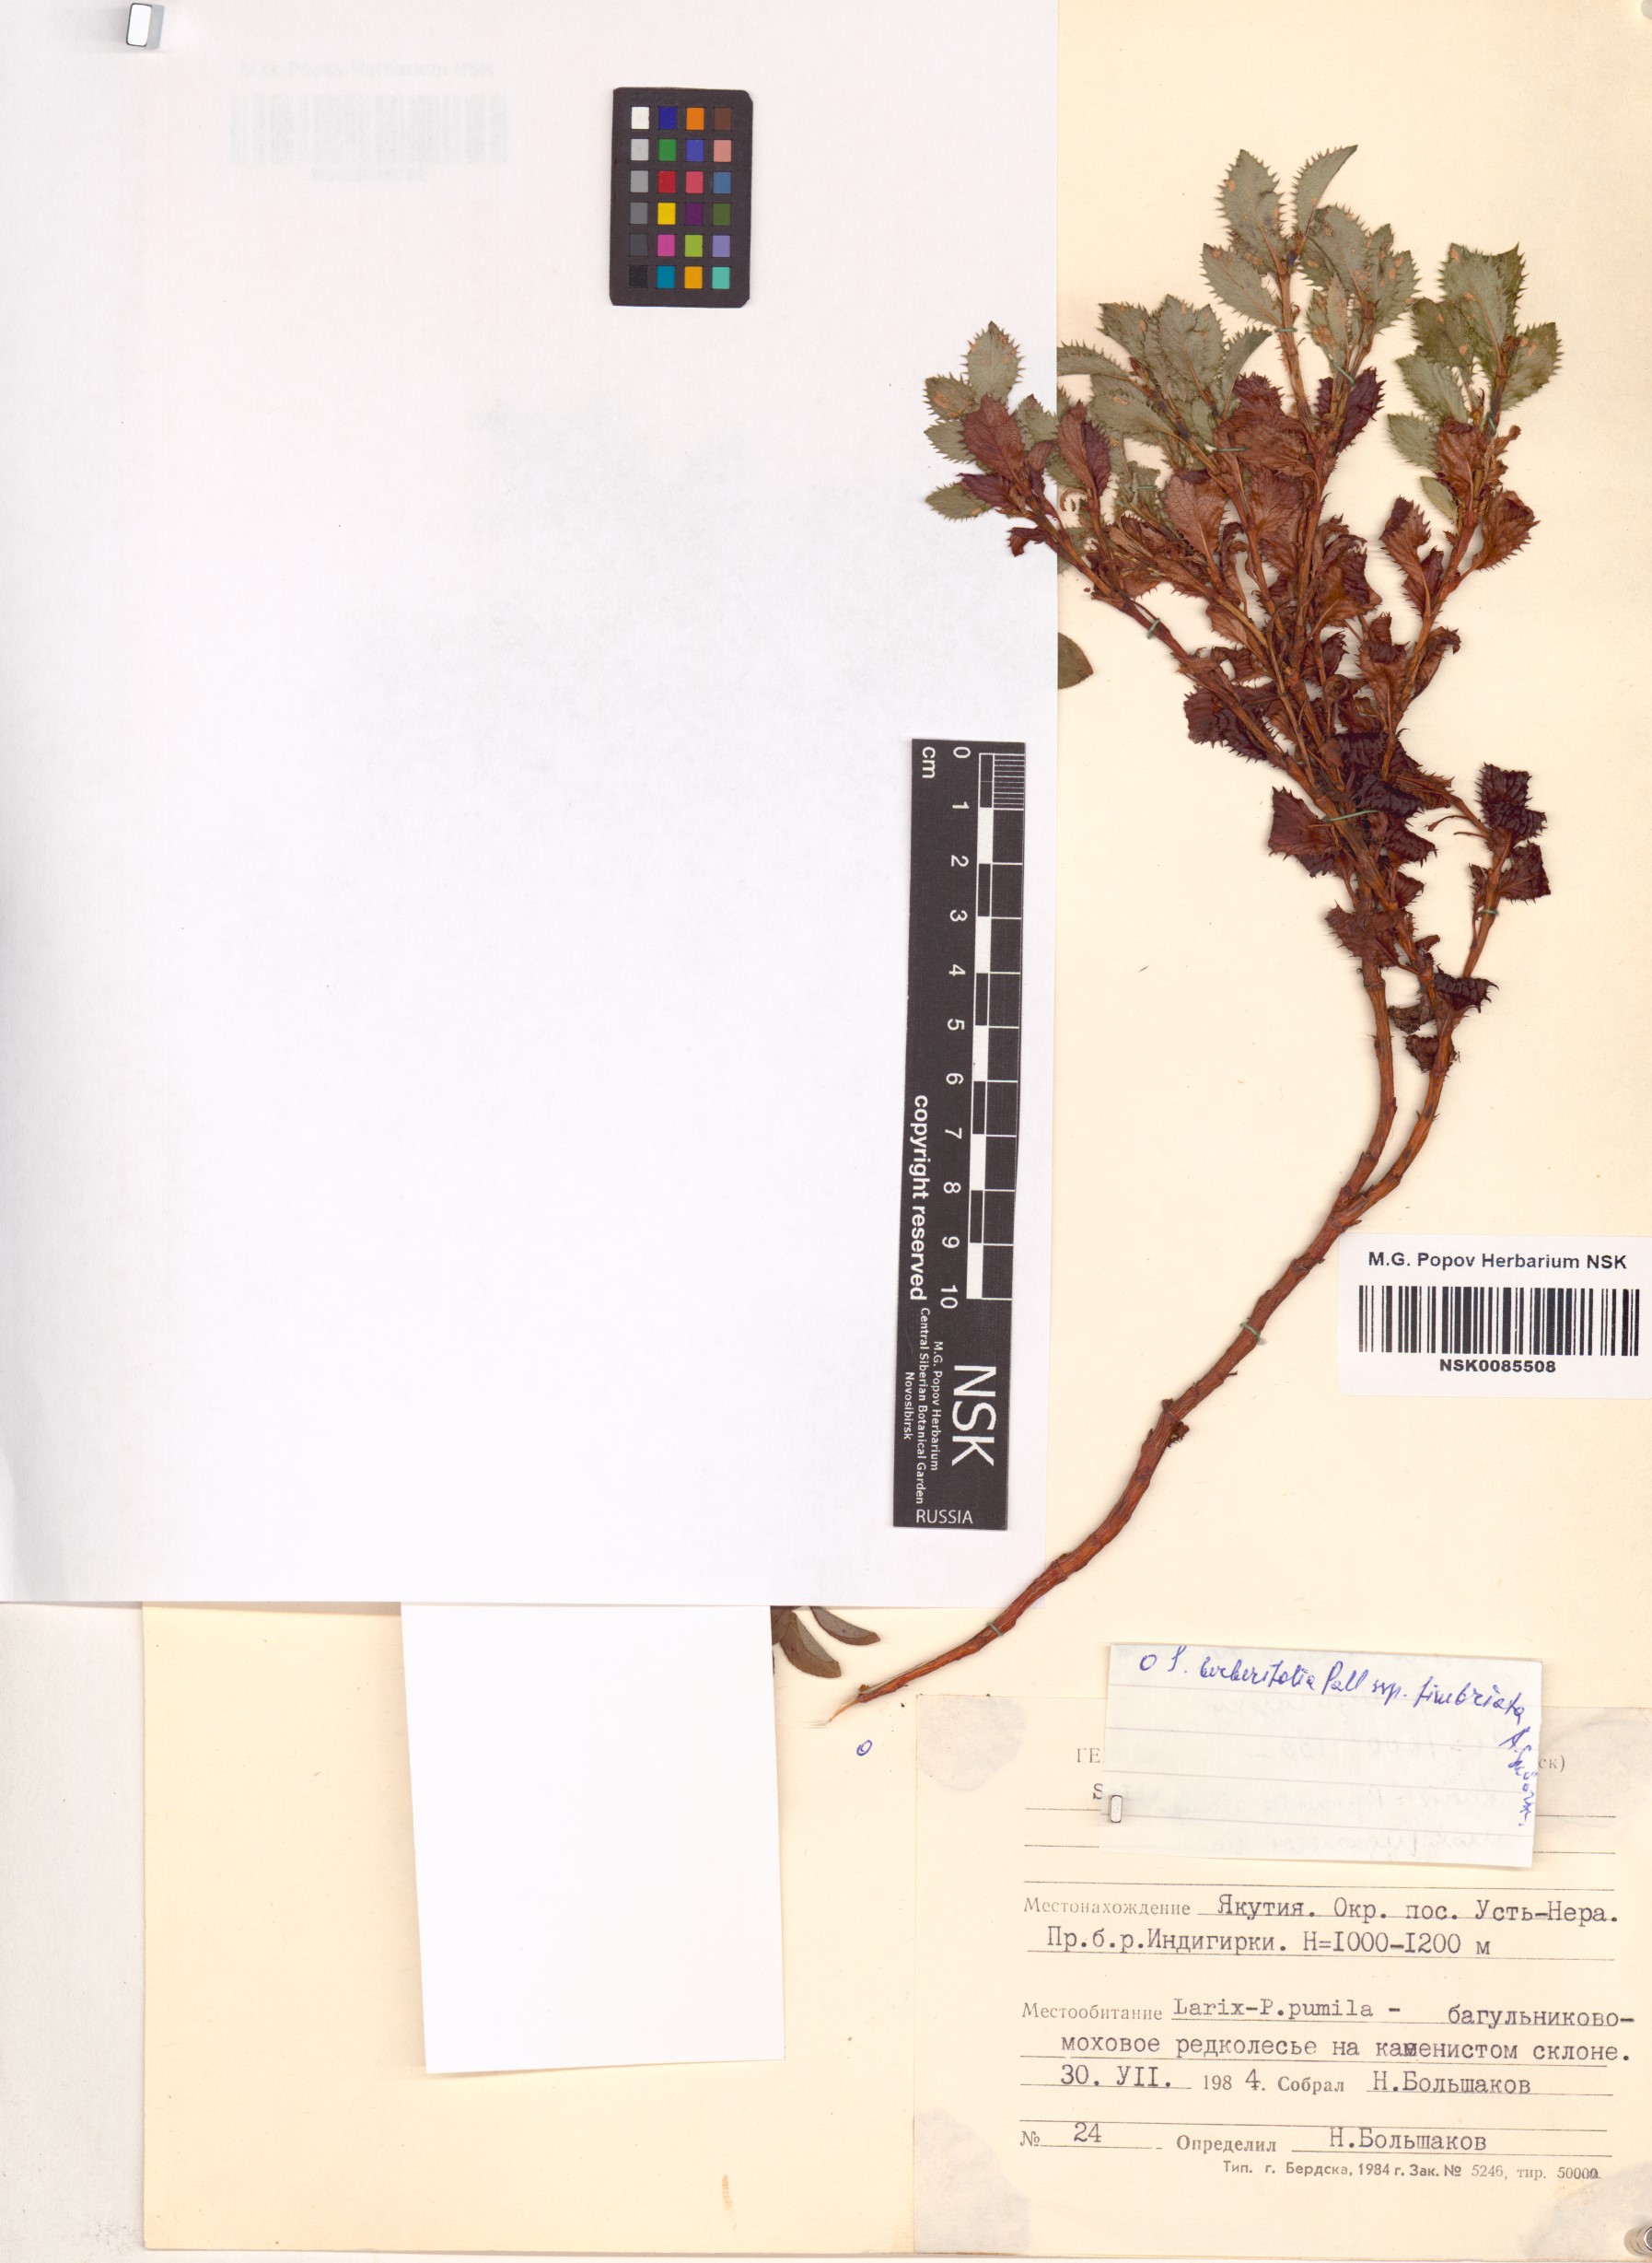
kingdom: Plantae
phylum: Tracheophyta
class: Magnoliopsida
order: Malpighiales
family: Salicaceae
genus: Salix
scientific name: Salix berberifolia
